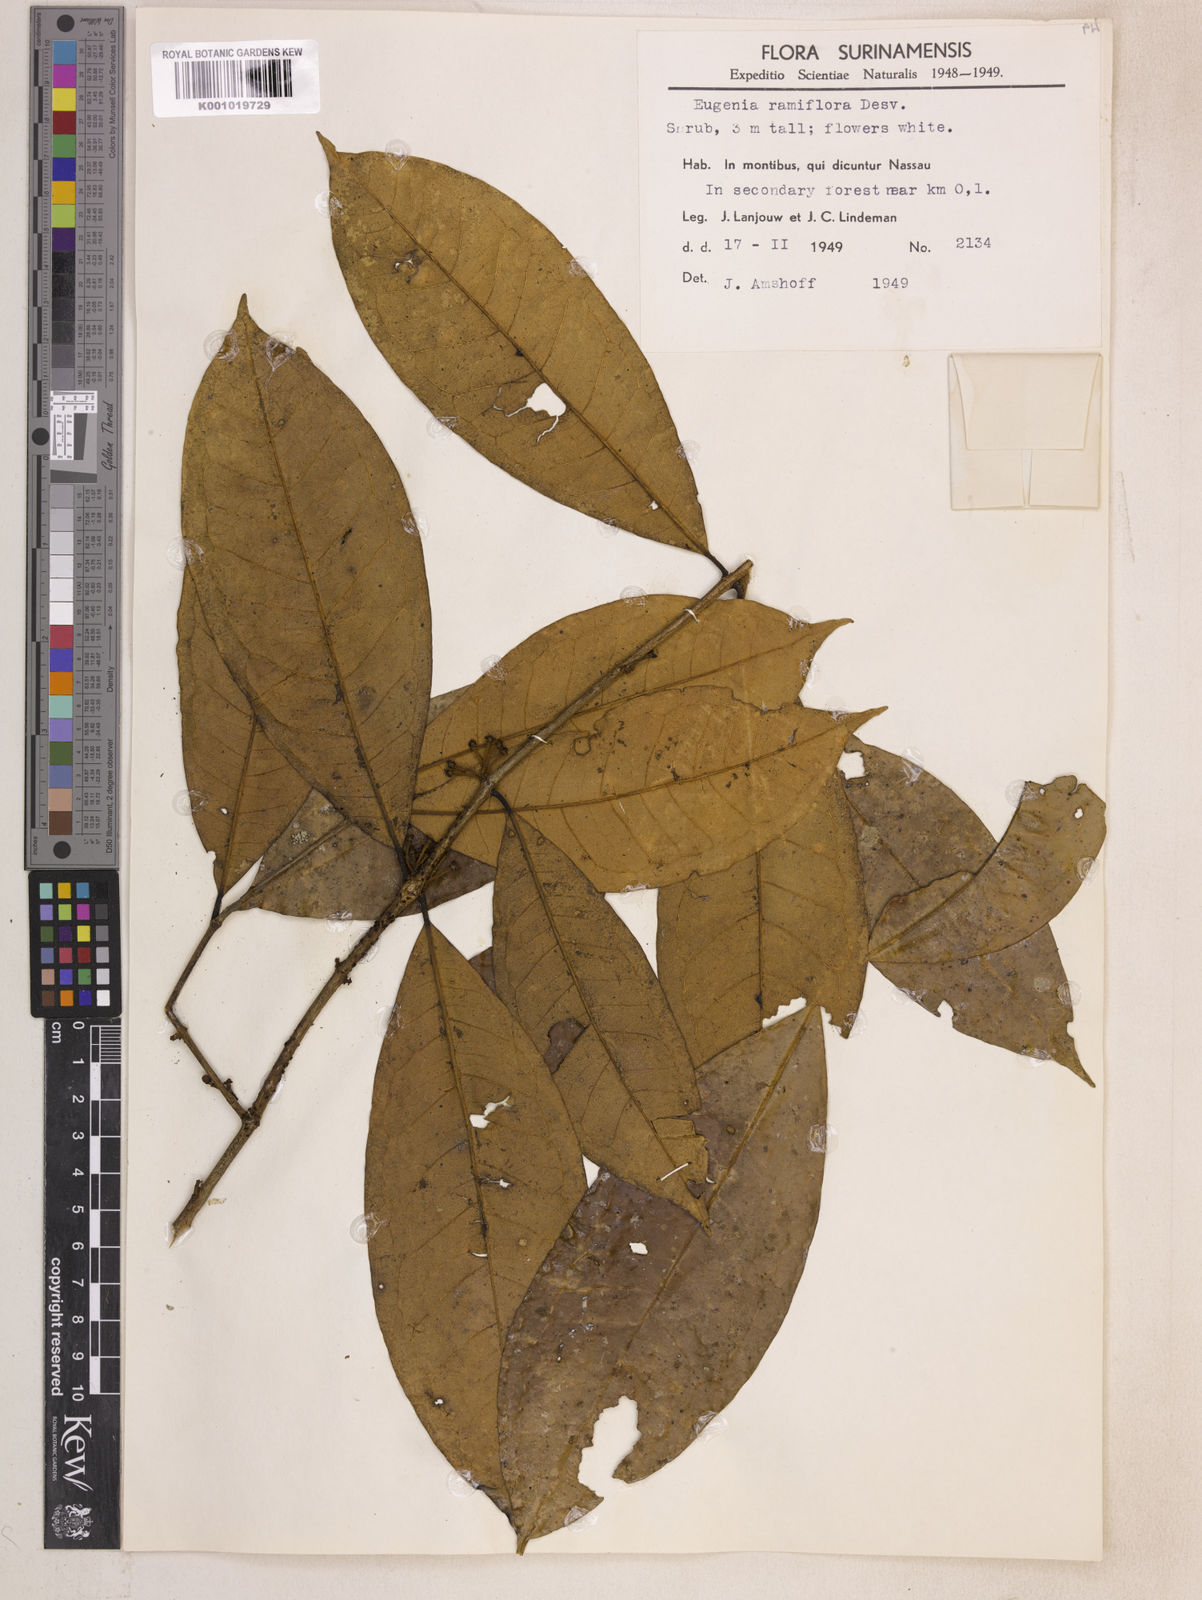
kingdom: Plantae
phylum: Tracheophyta
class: Magnoliopsida
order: Myrtales
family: Myrtaceae
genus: Eugenia
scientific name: Eugenia ramiflora
